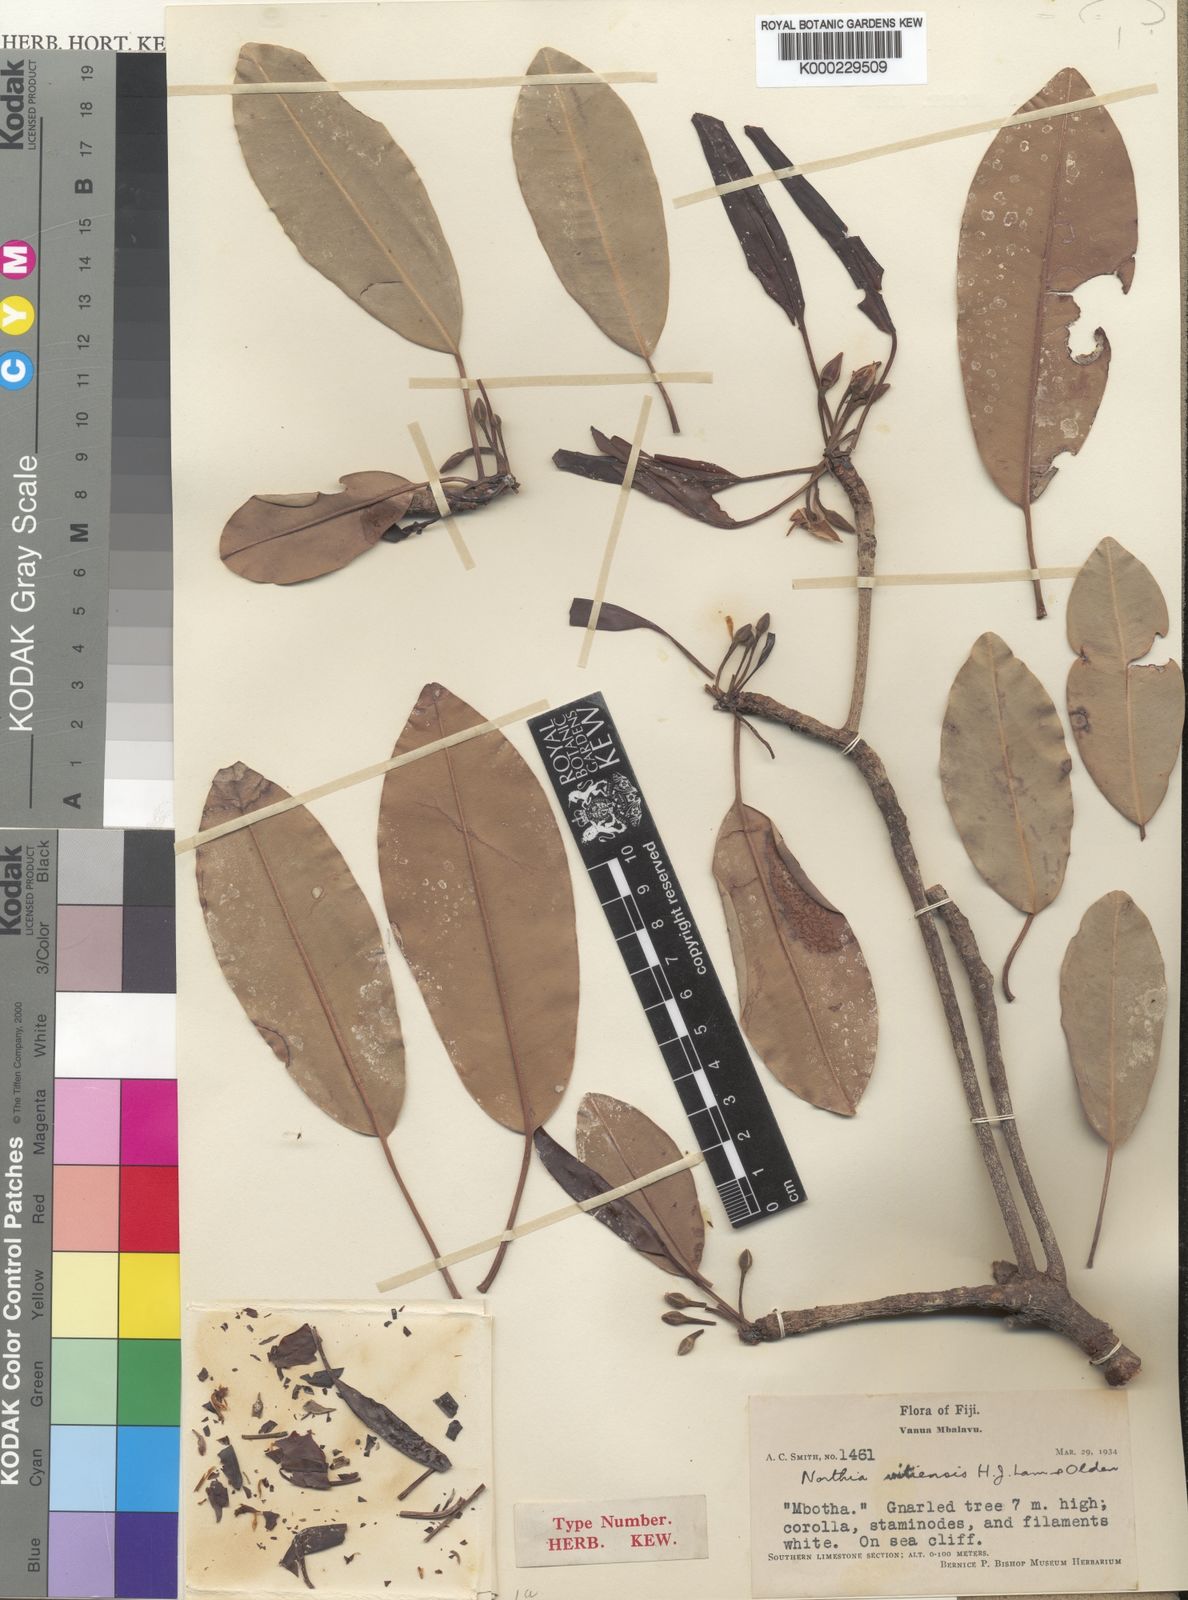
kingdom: Plantae
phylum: Tracheophyta
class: Magnoliopsida
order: Ericales
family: Sapotaceae
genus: Manilkara
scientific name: Manilkara vitiensis
